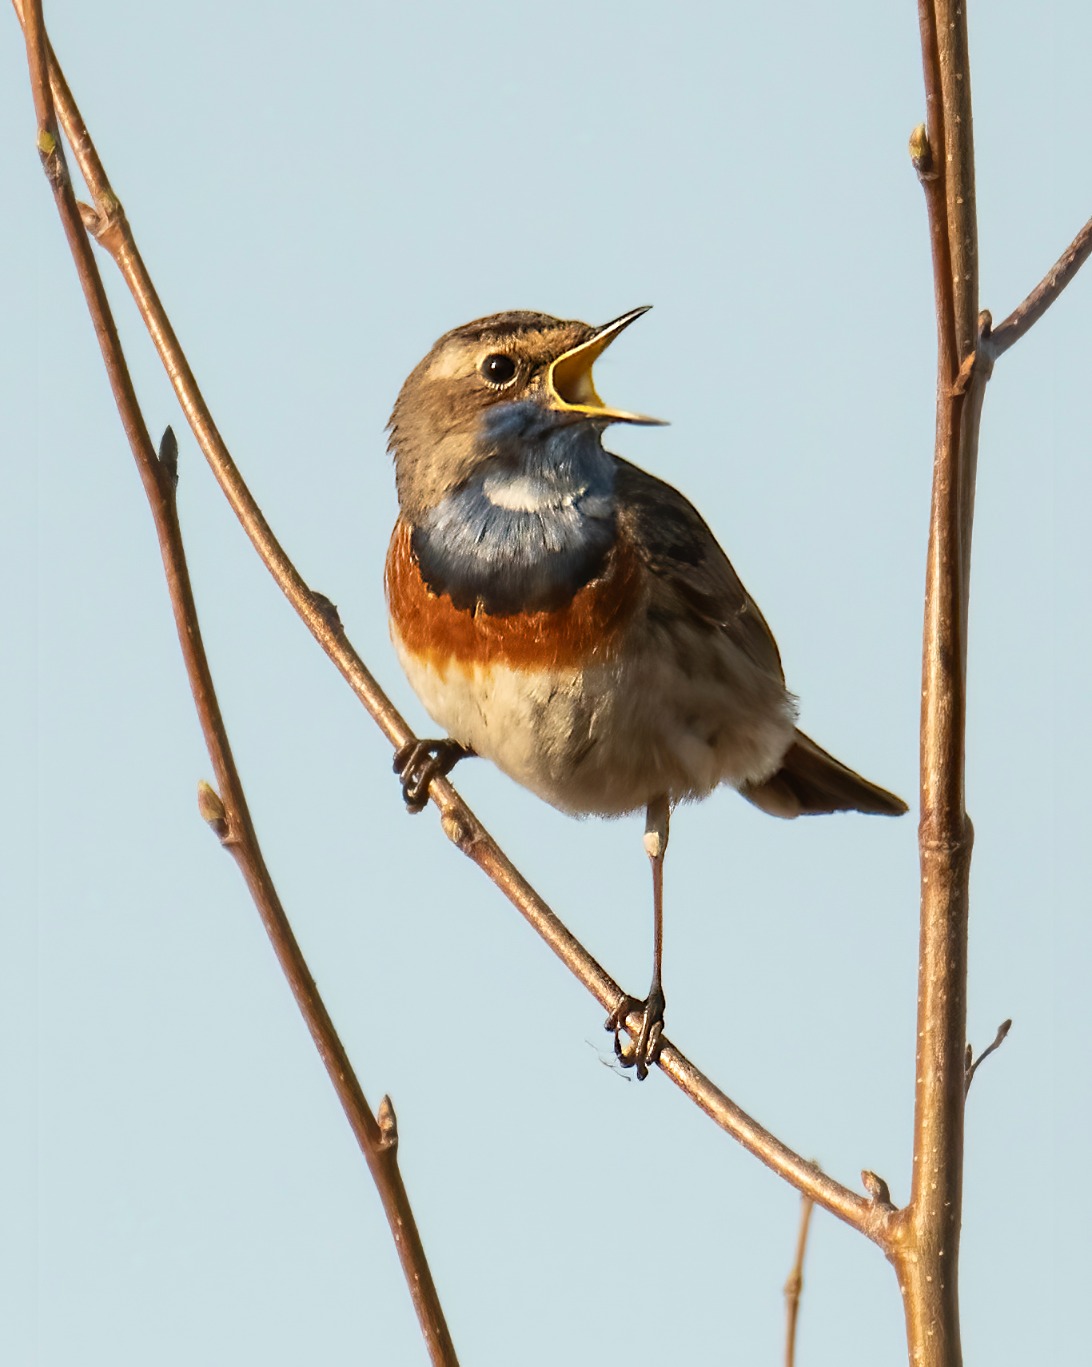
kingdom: Animalia
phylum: Chordata
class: Aves
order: Passeriformes
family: Muscicapidae
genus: Luscinia
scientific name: Luscinia svecica
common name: Blåhals
